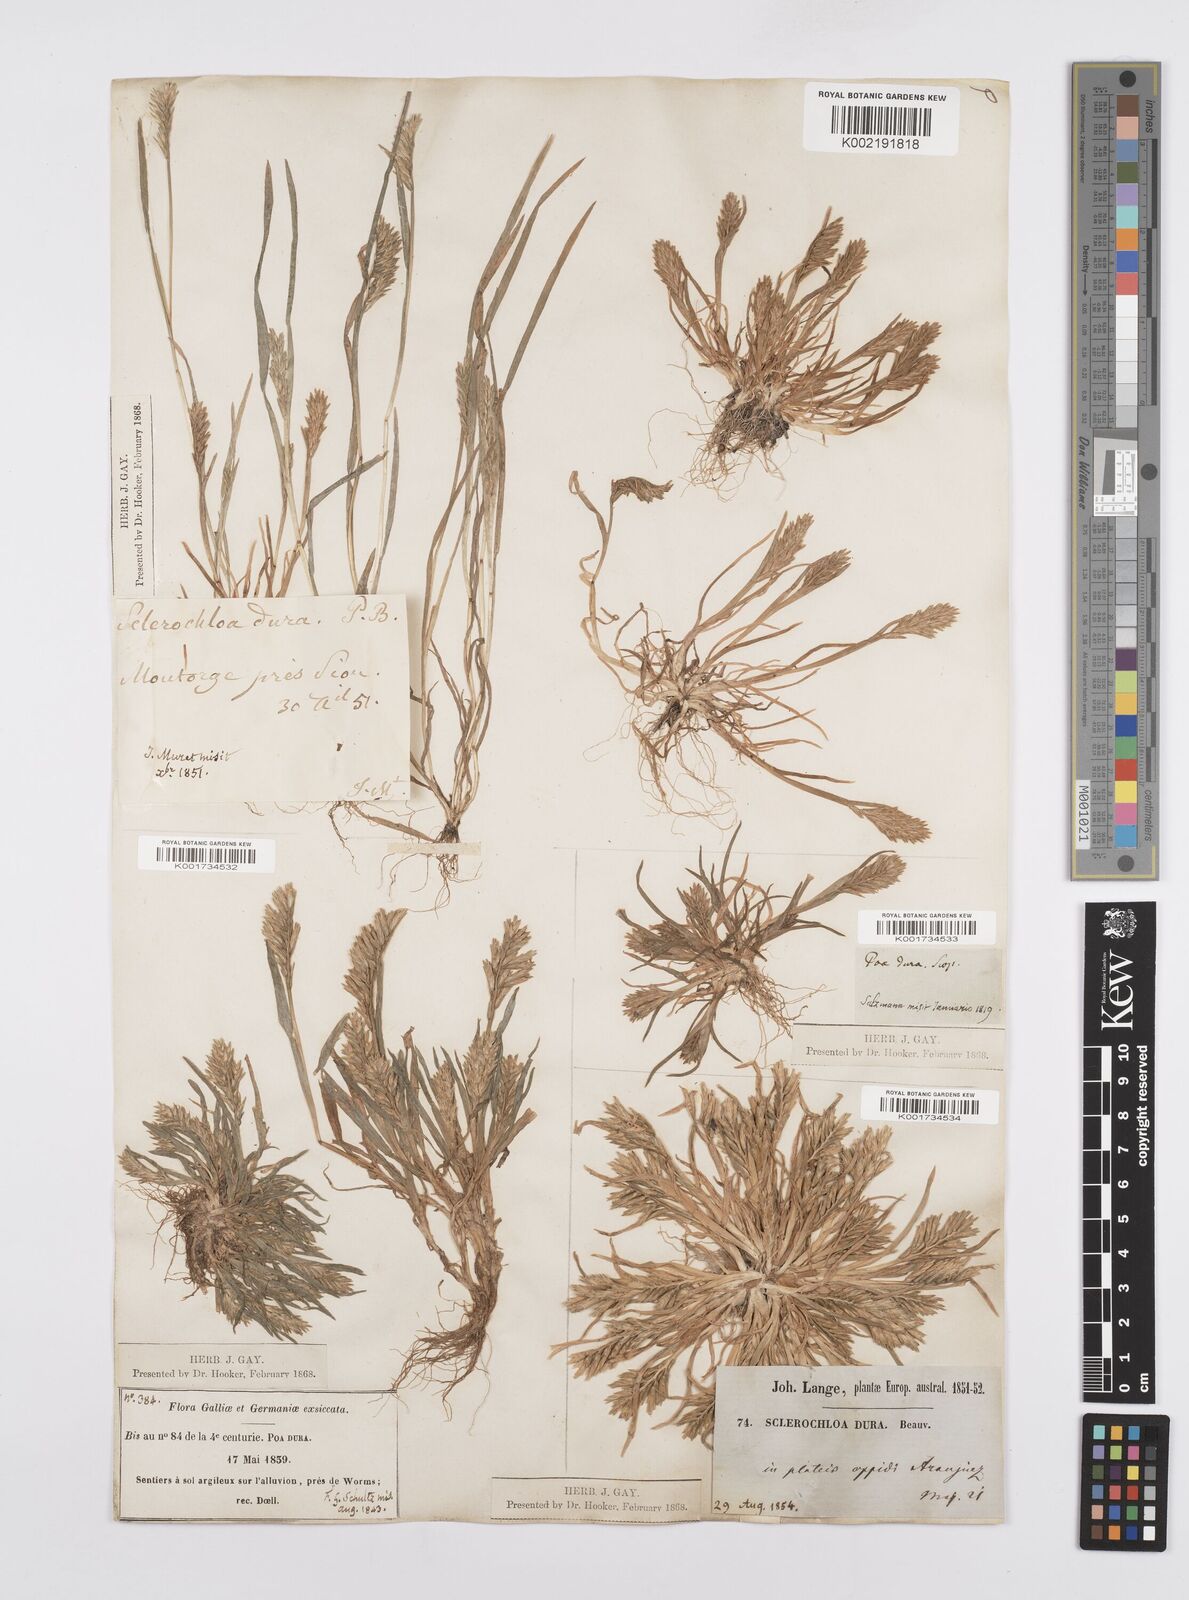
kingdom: Plantae
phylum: Tracheophyta
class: Liliopsida
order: Poales
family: Poaceae
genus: Sclerochloa
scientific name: Sclerochloa dura
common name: Common hardgrass
